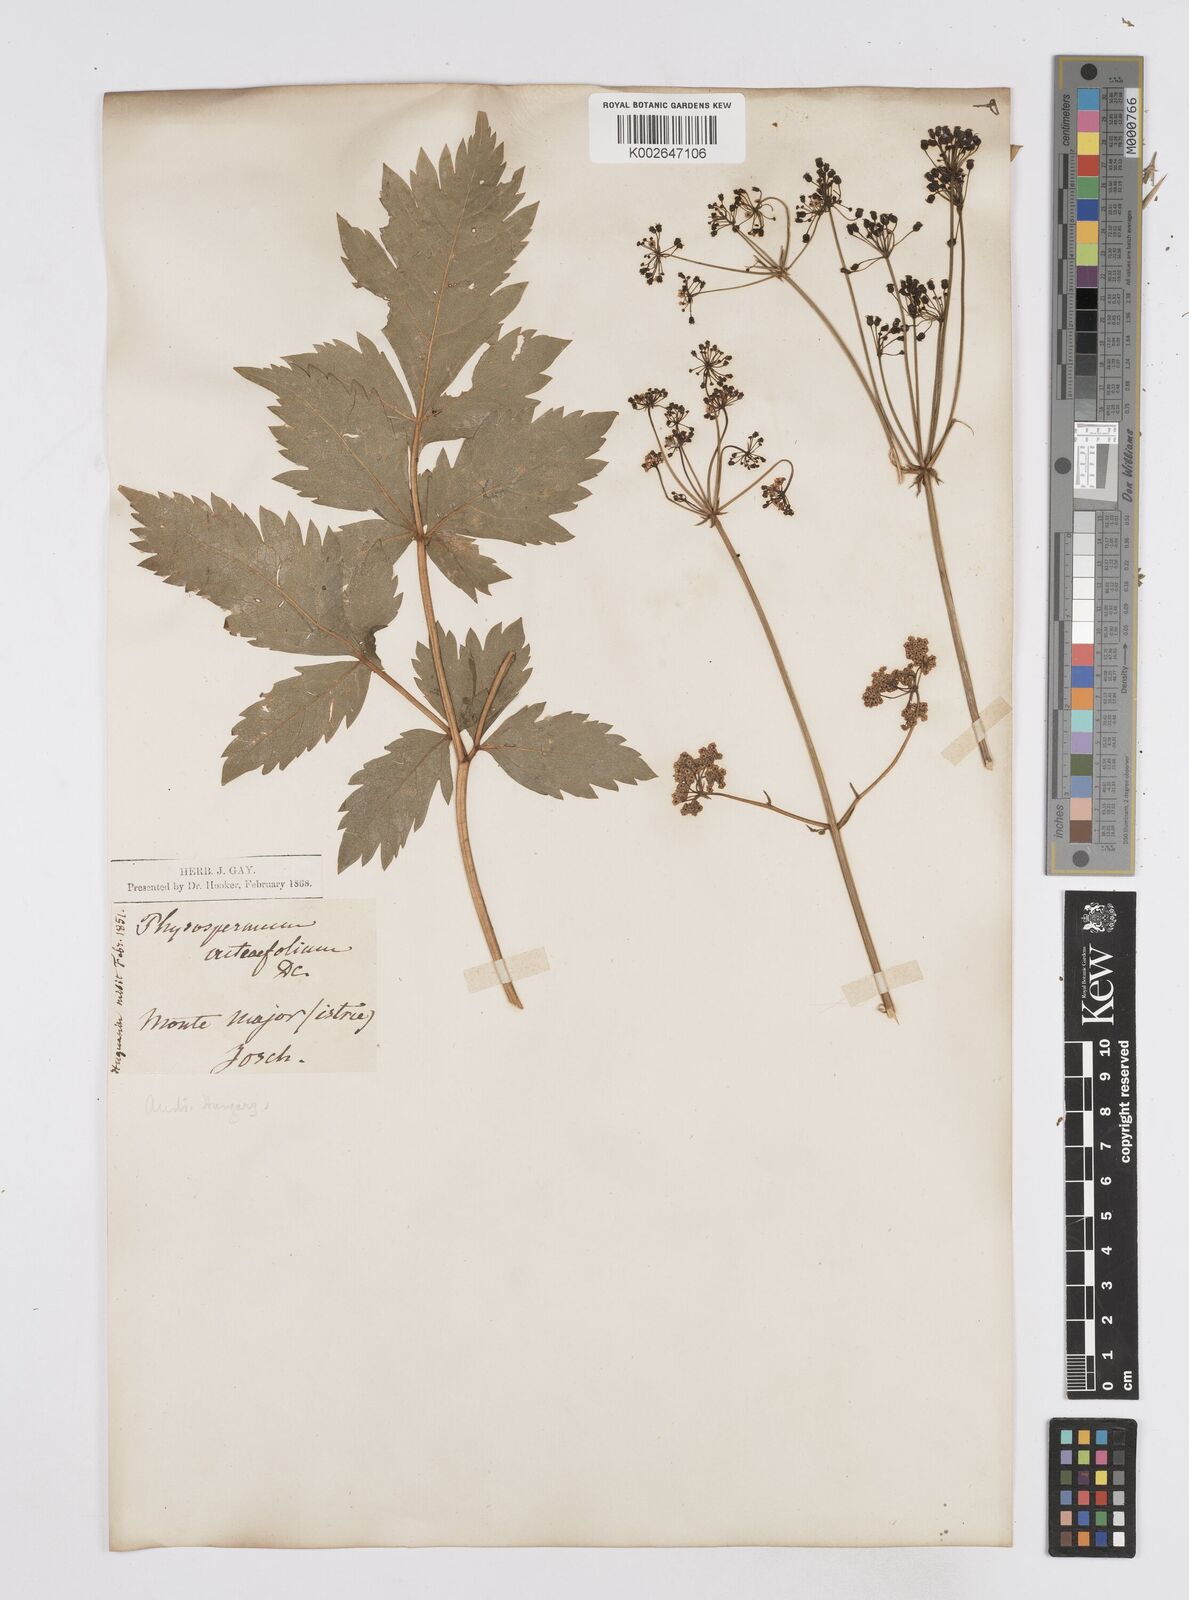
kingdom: Plantae
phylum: Tracheophyta
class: Magnoliopsida
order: Apiales
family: Apiaceae
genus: Physospermum
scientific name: Physospermum verticillatum
